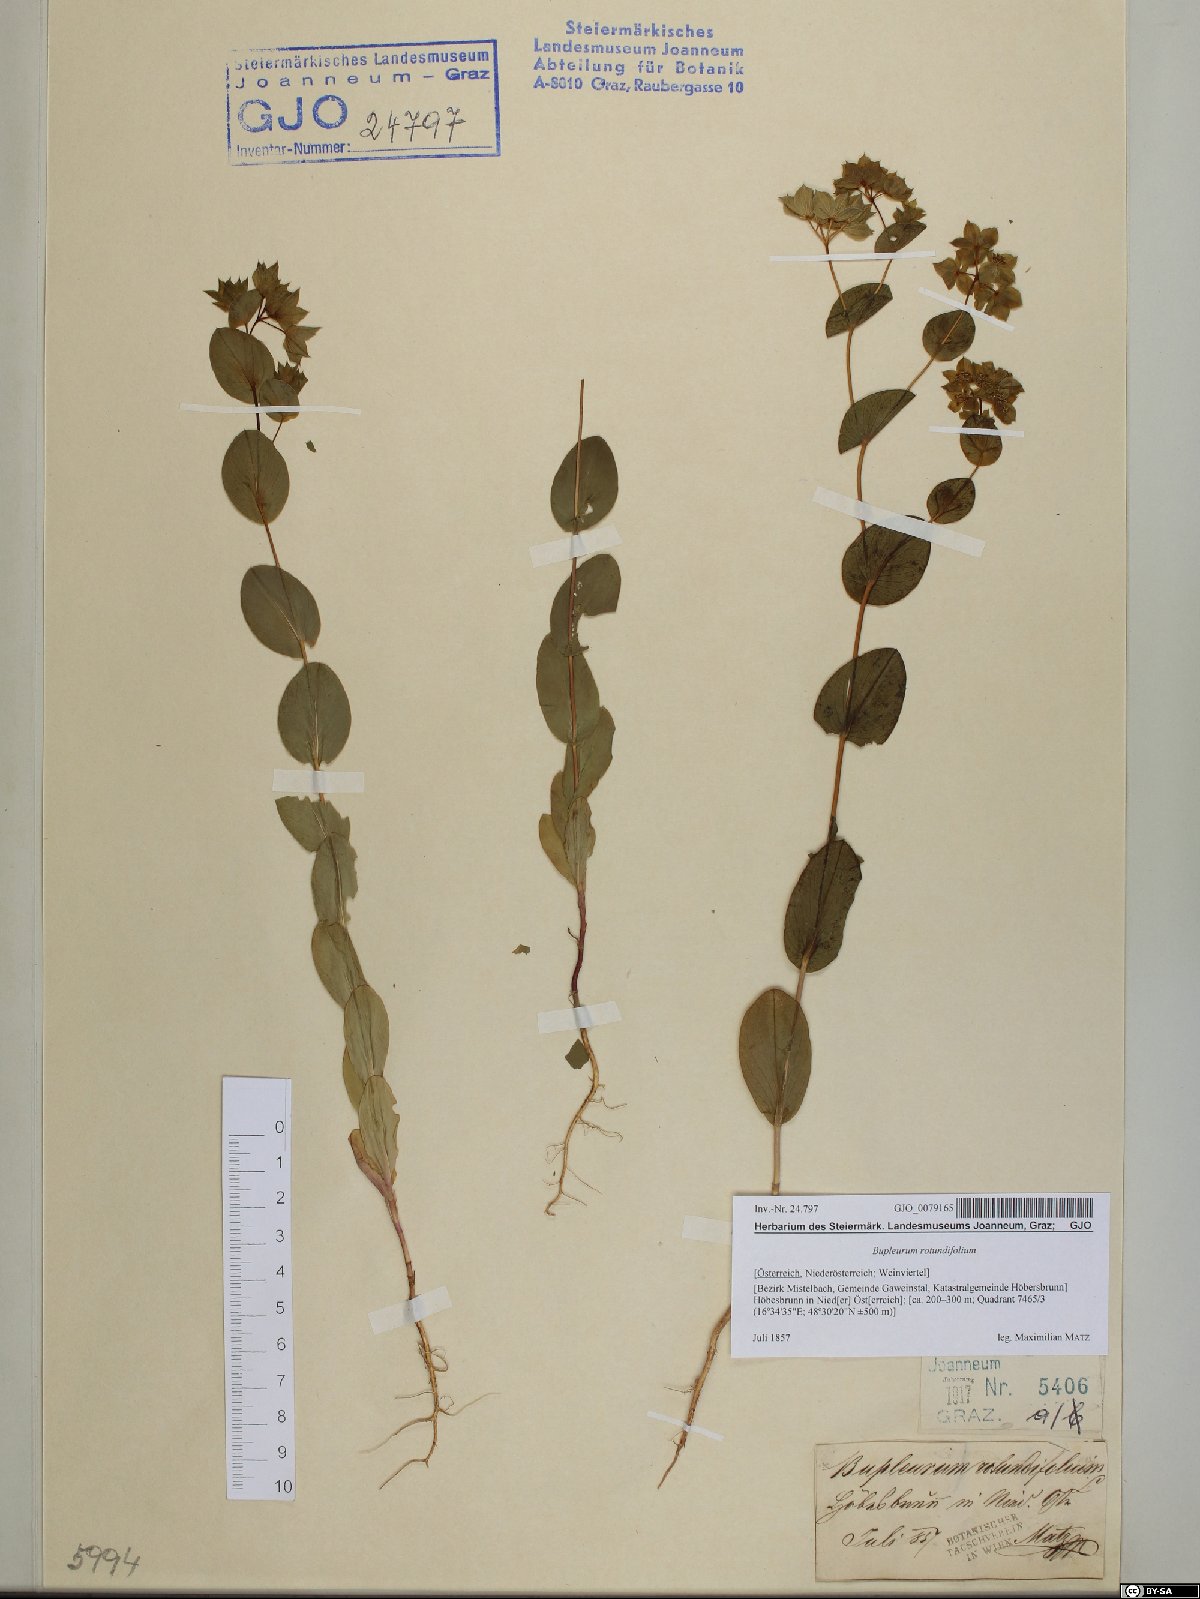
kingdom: Plantae
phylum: Tracheophyta
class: Magnoliopsida
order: Apiales
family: Apiaceae
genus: Bupleurum
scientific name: Bupleurum rotundifolium
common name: Thorow-wax
